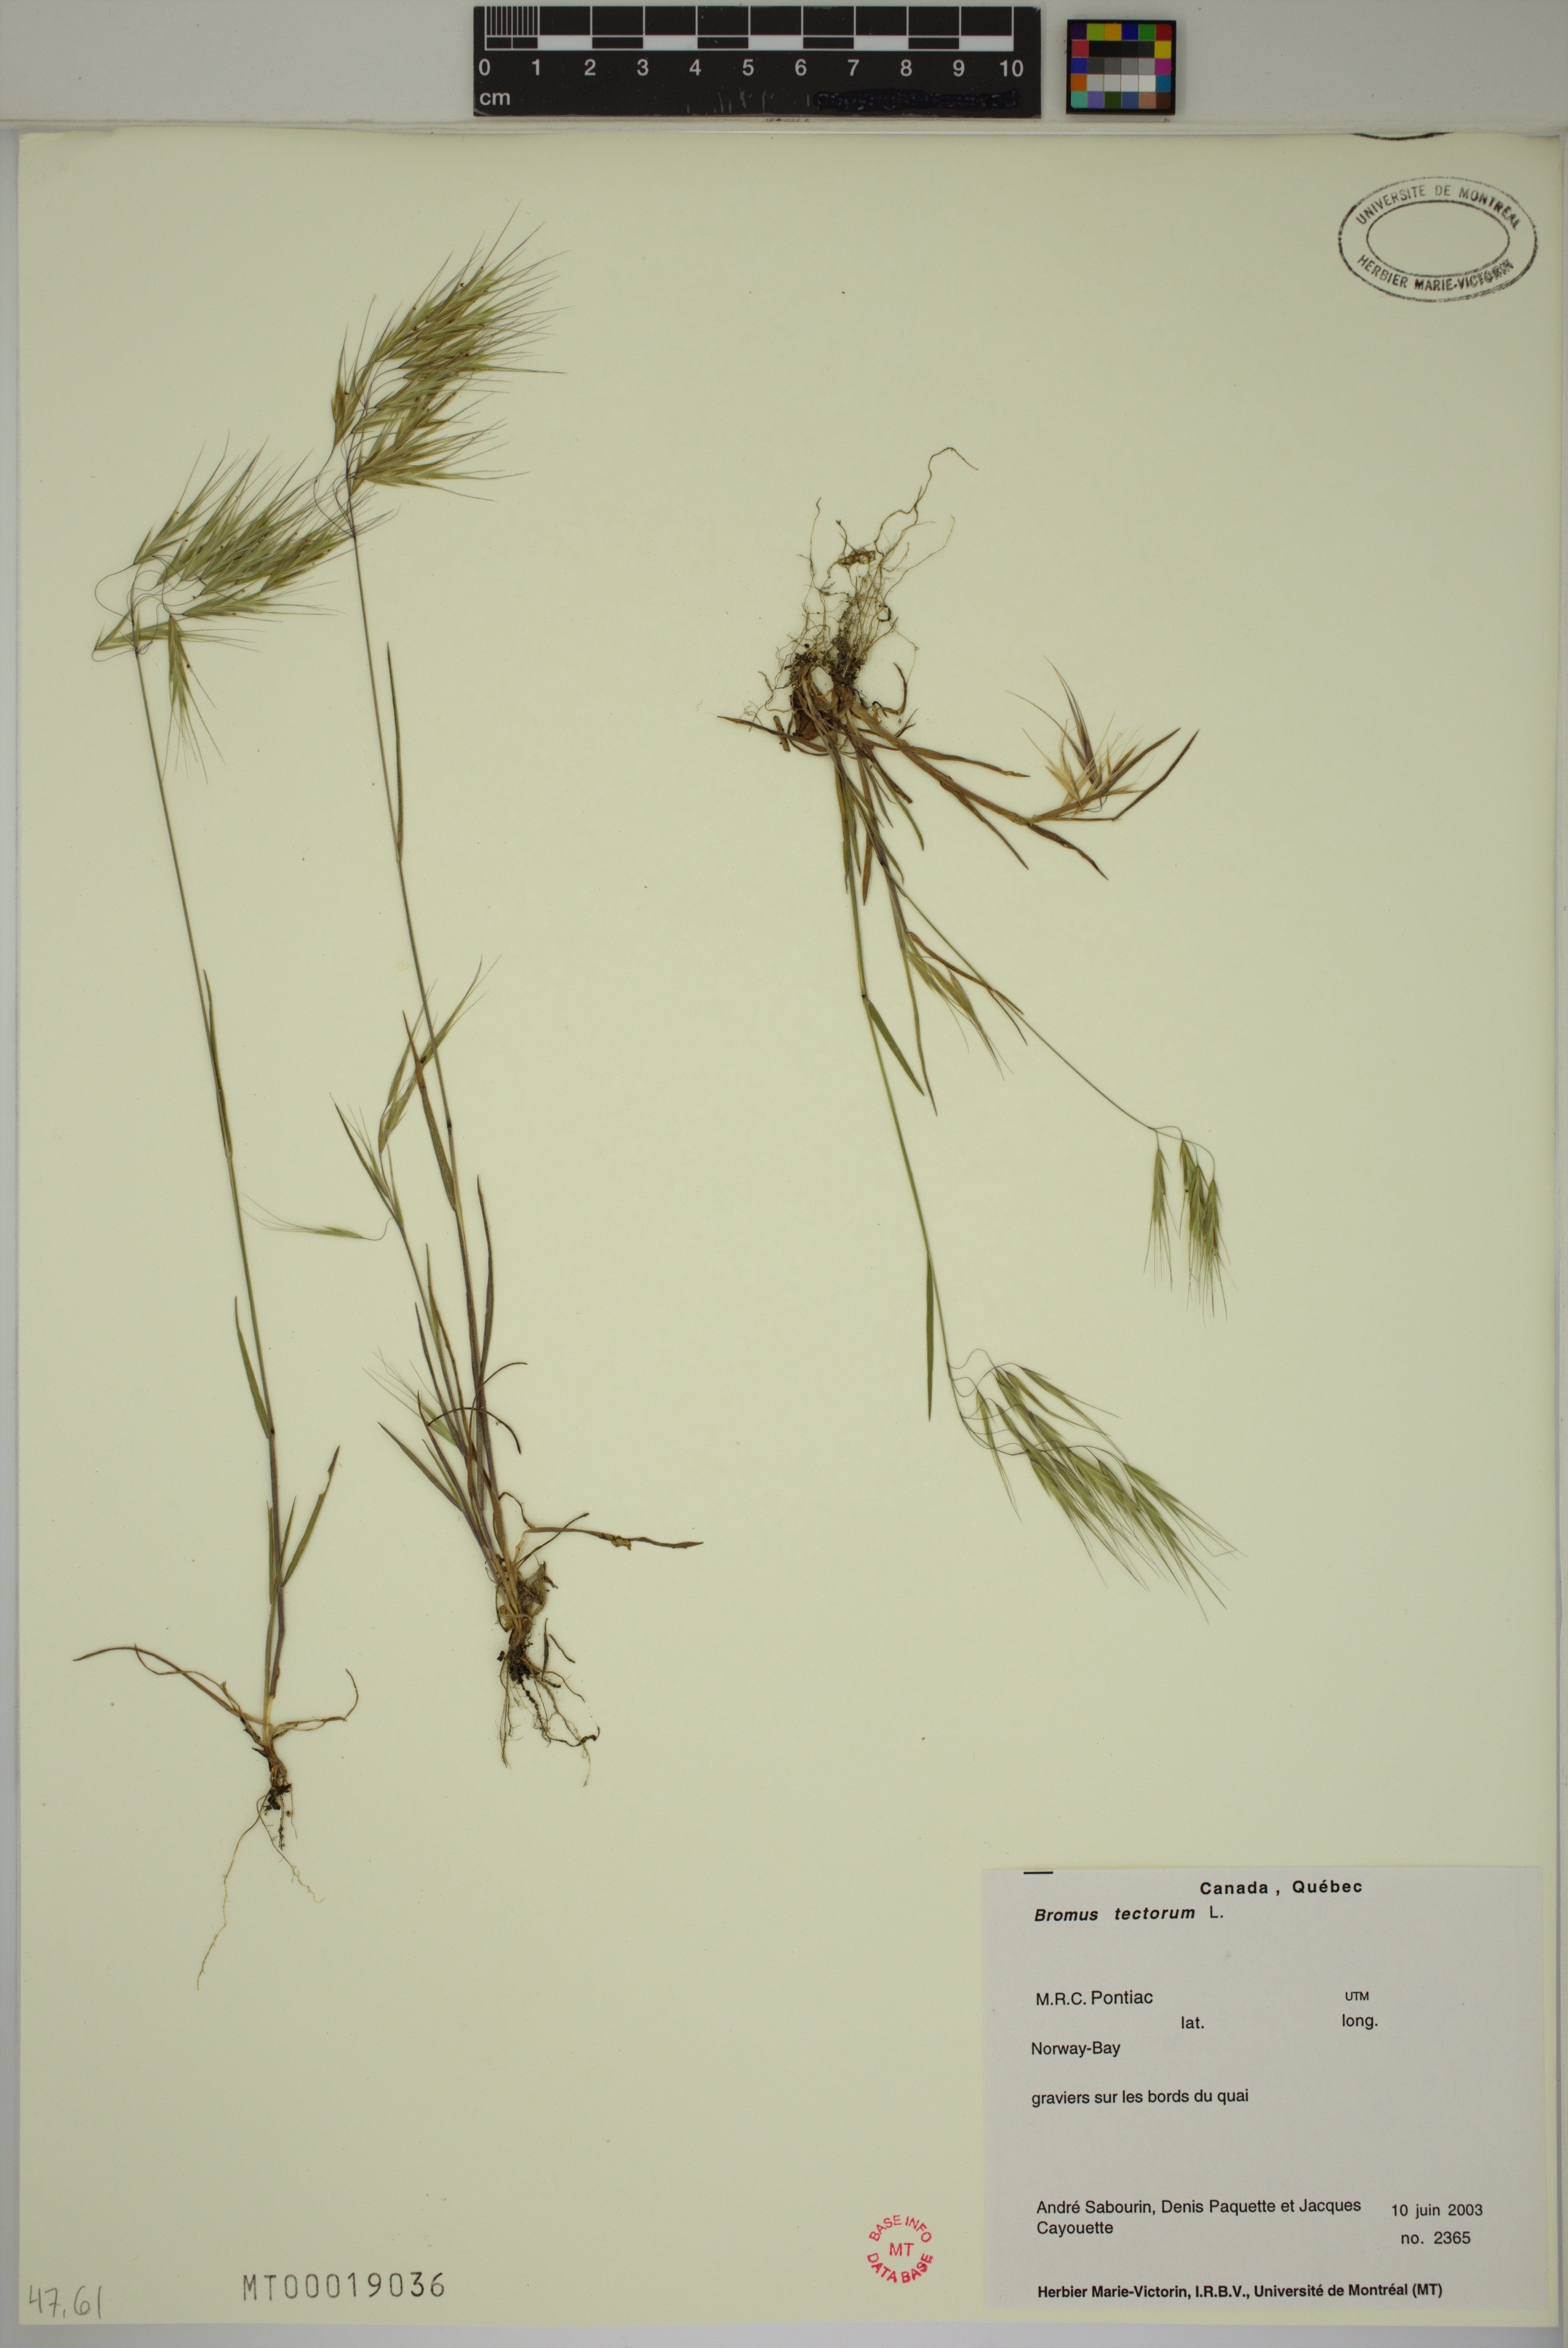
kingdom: Plantae
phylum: Tracheophyta
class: Liliopsida
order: Poales
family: Poaceae
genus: Bromus
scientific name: Bromus tectorum
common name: Cheatgrass
